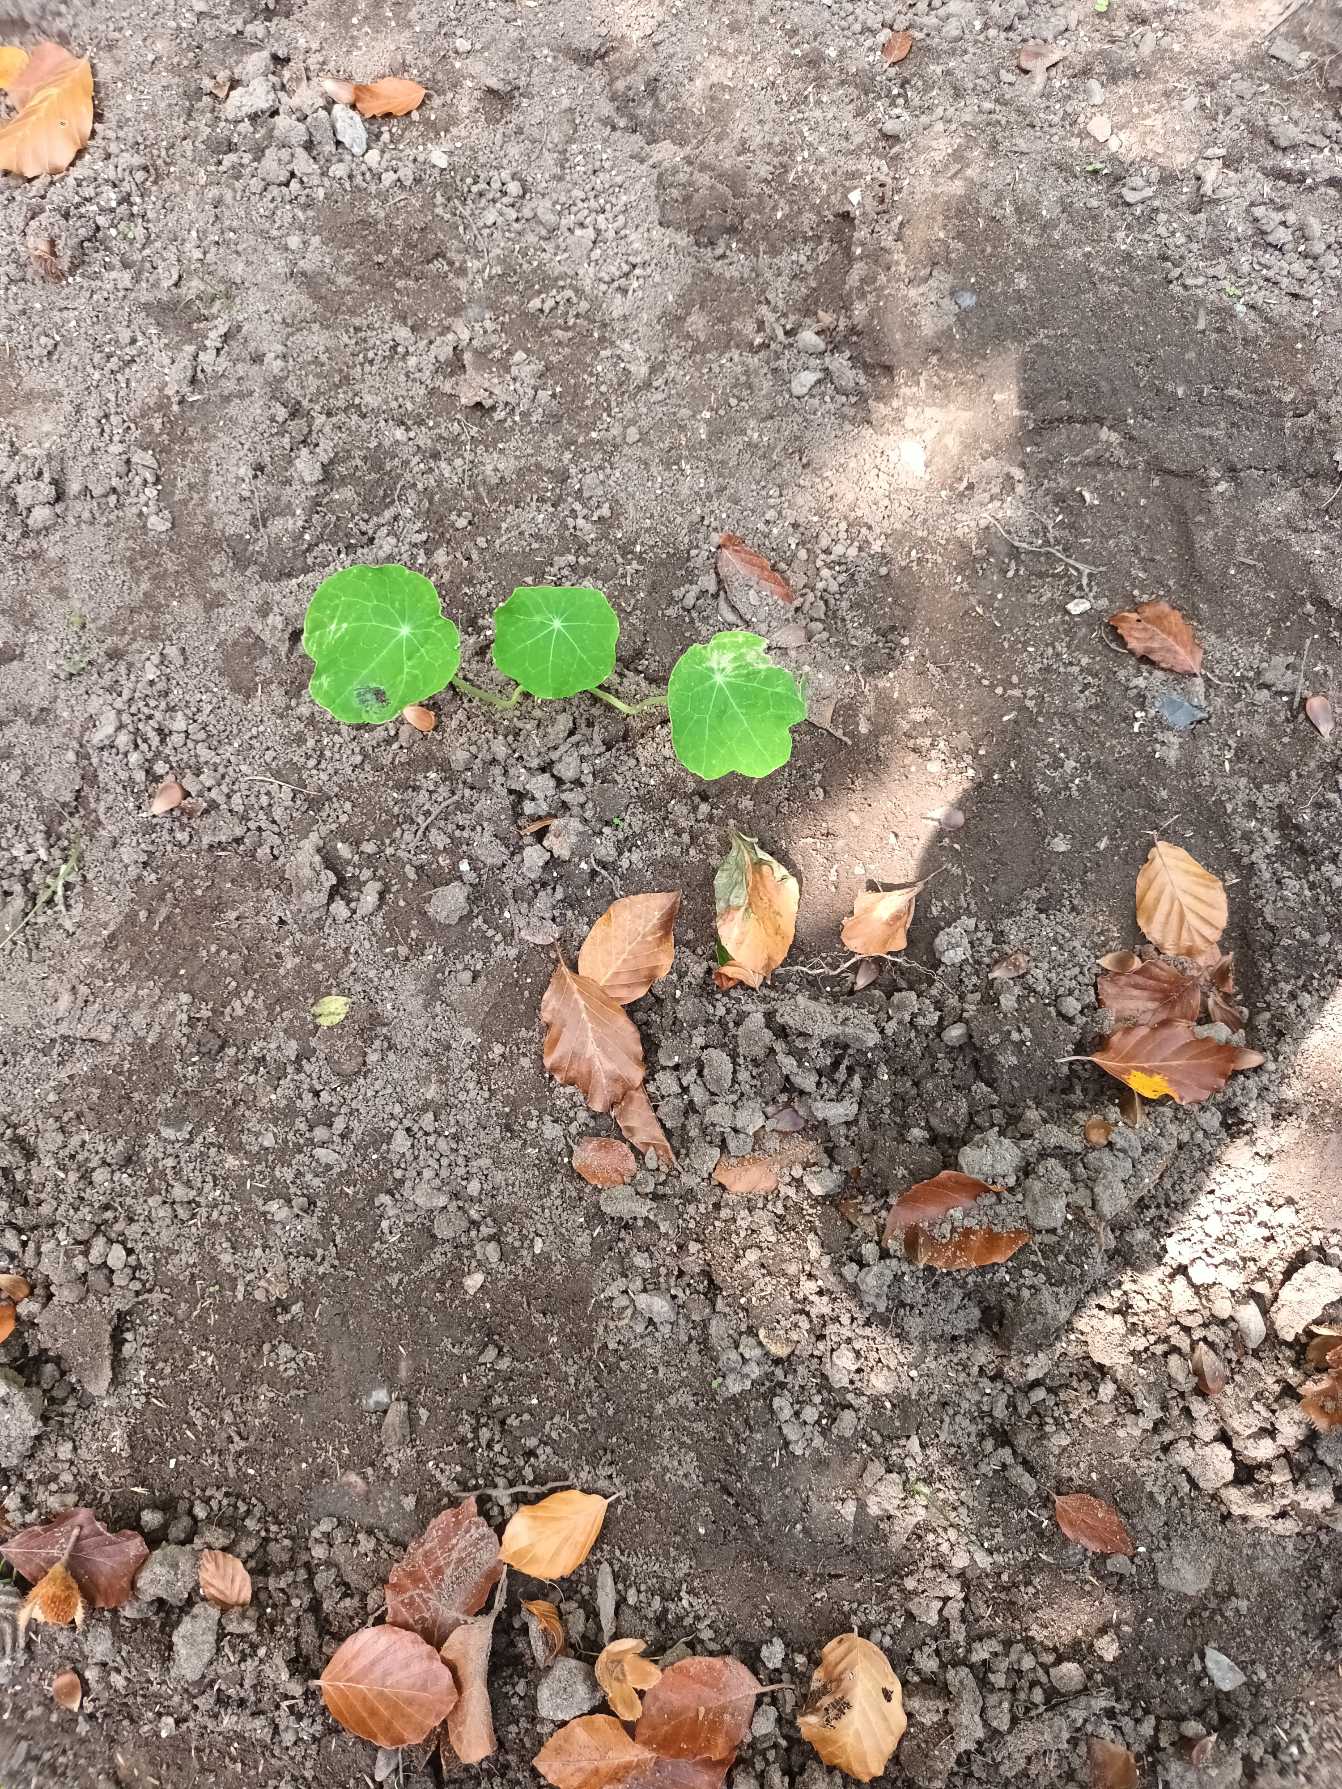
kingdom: Plantae
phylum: Tracheophyta
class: Magnoliopsida
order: Brassicales
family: Tropaeolaceae
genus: Tropaeolum
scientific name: Tropaeolum majus
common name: Blomsterkarse
